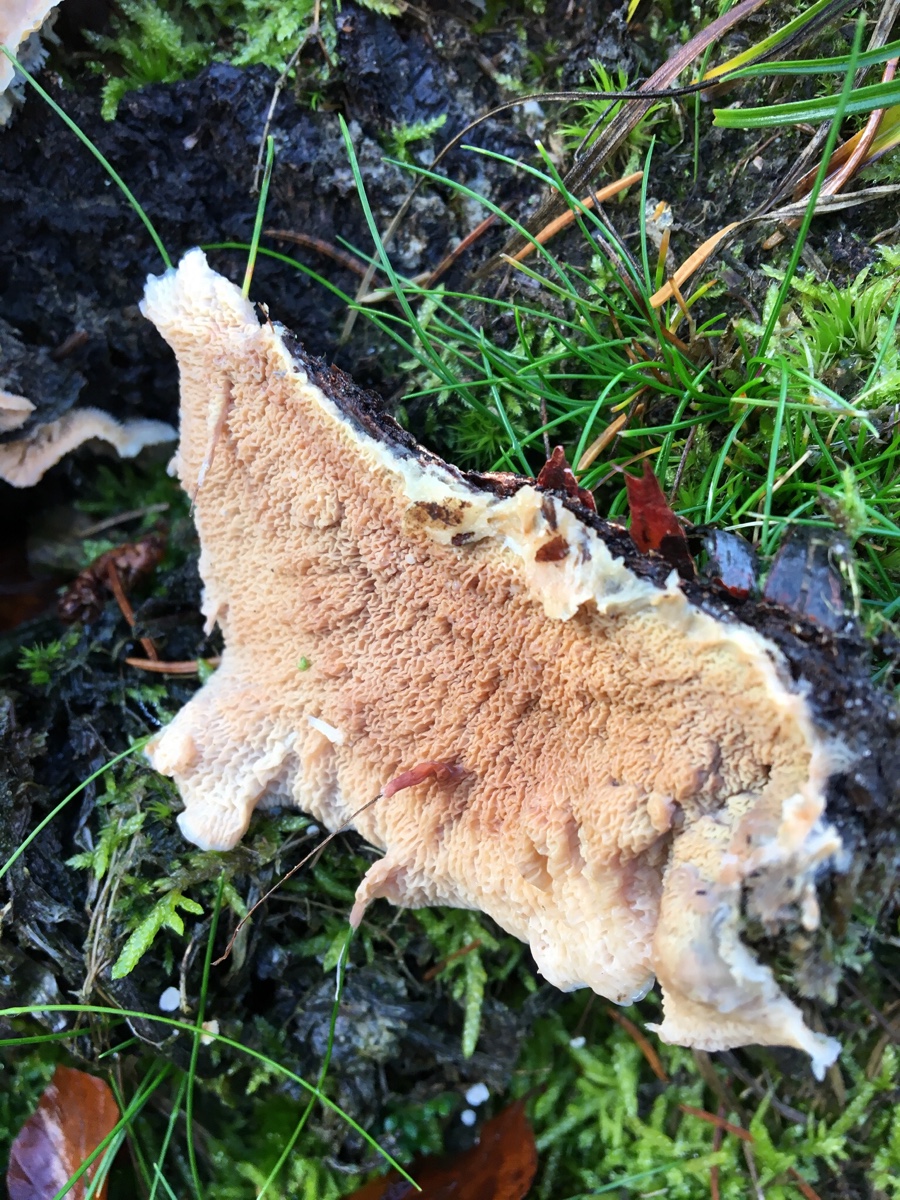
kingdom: Fungi
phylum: Basidiomycota
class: Agaricomycetes
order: Polyporales
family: Meruliaceae
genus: Phlebia
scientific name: Phlebia tremellosa
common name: bævrende åresvamp
